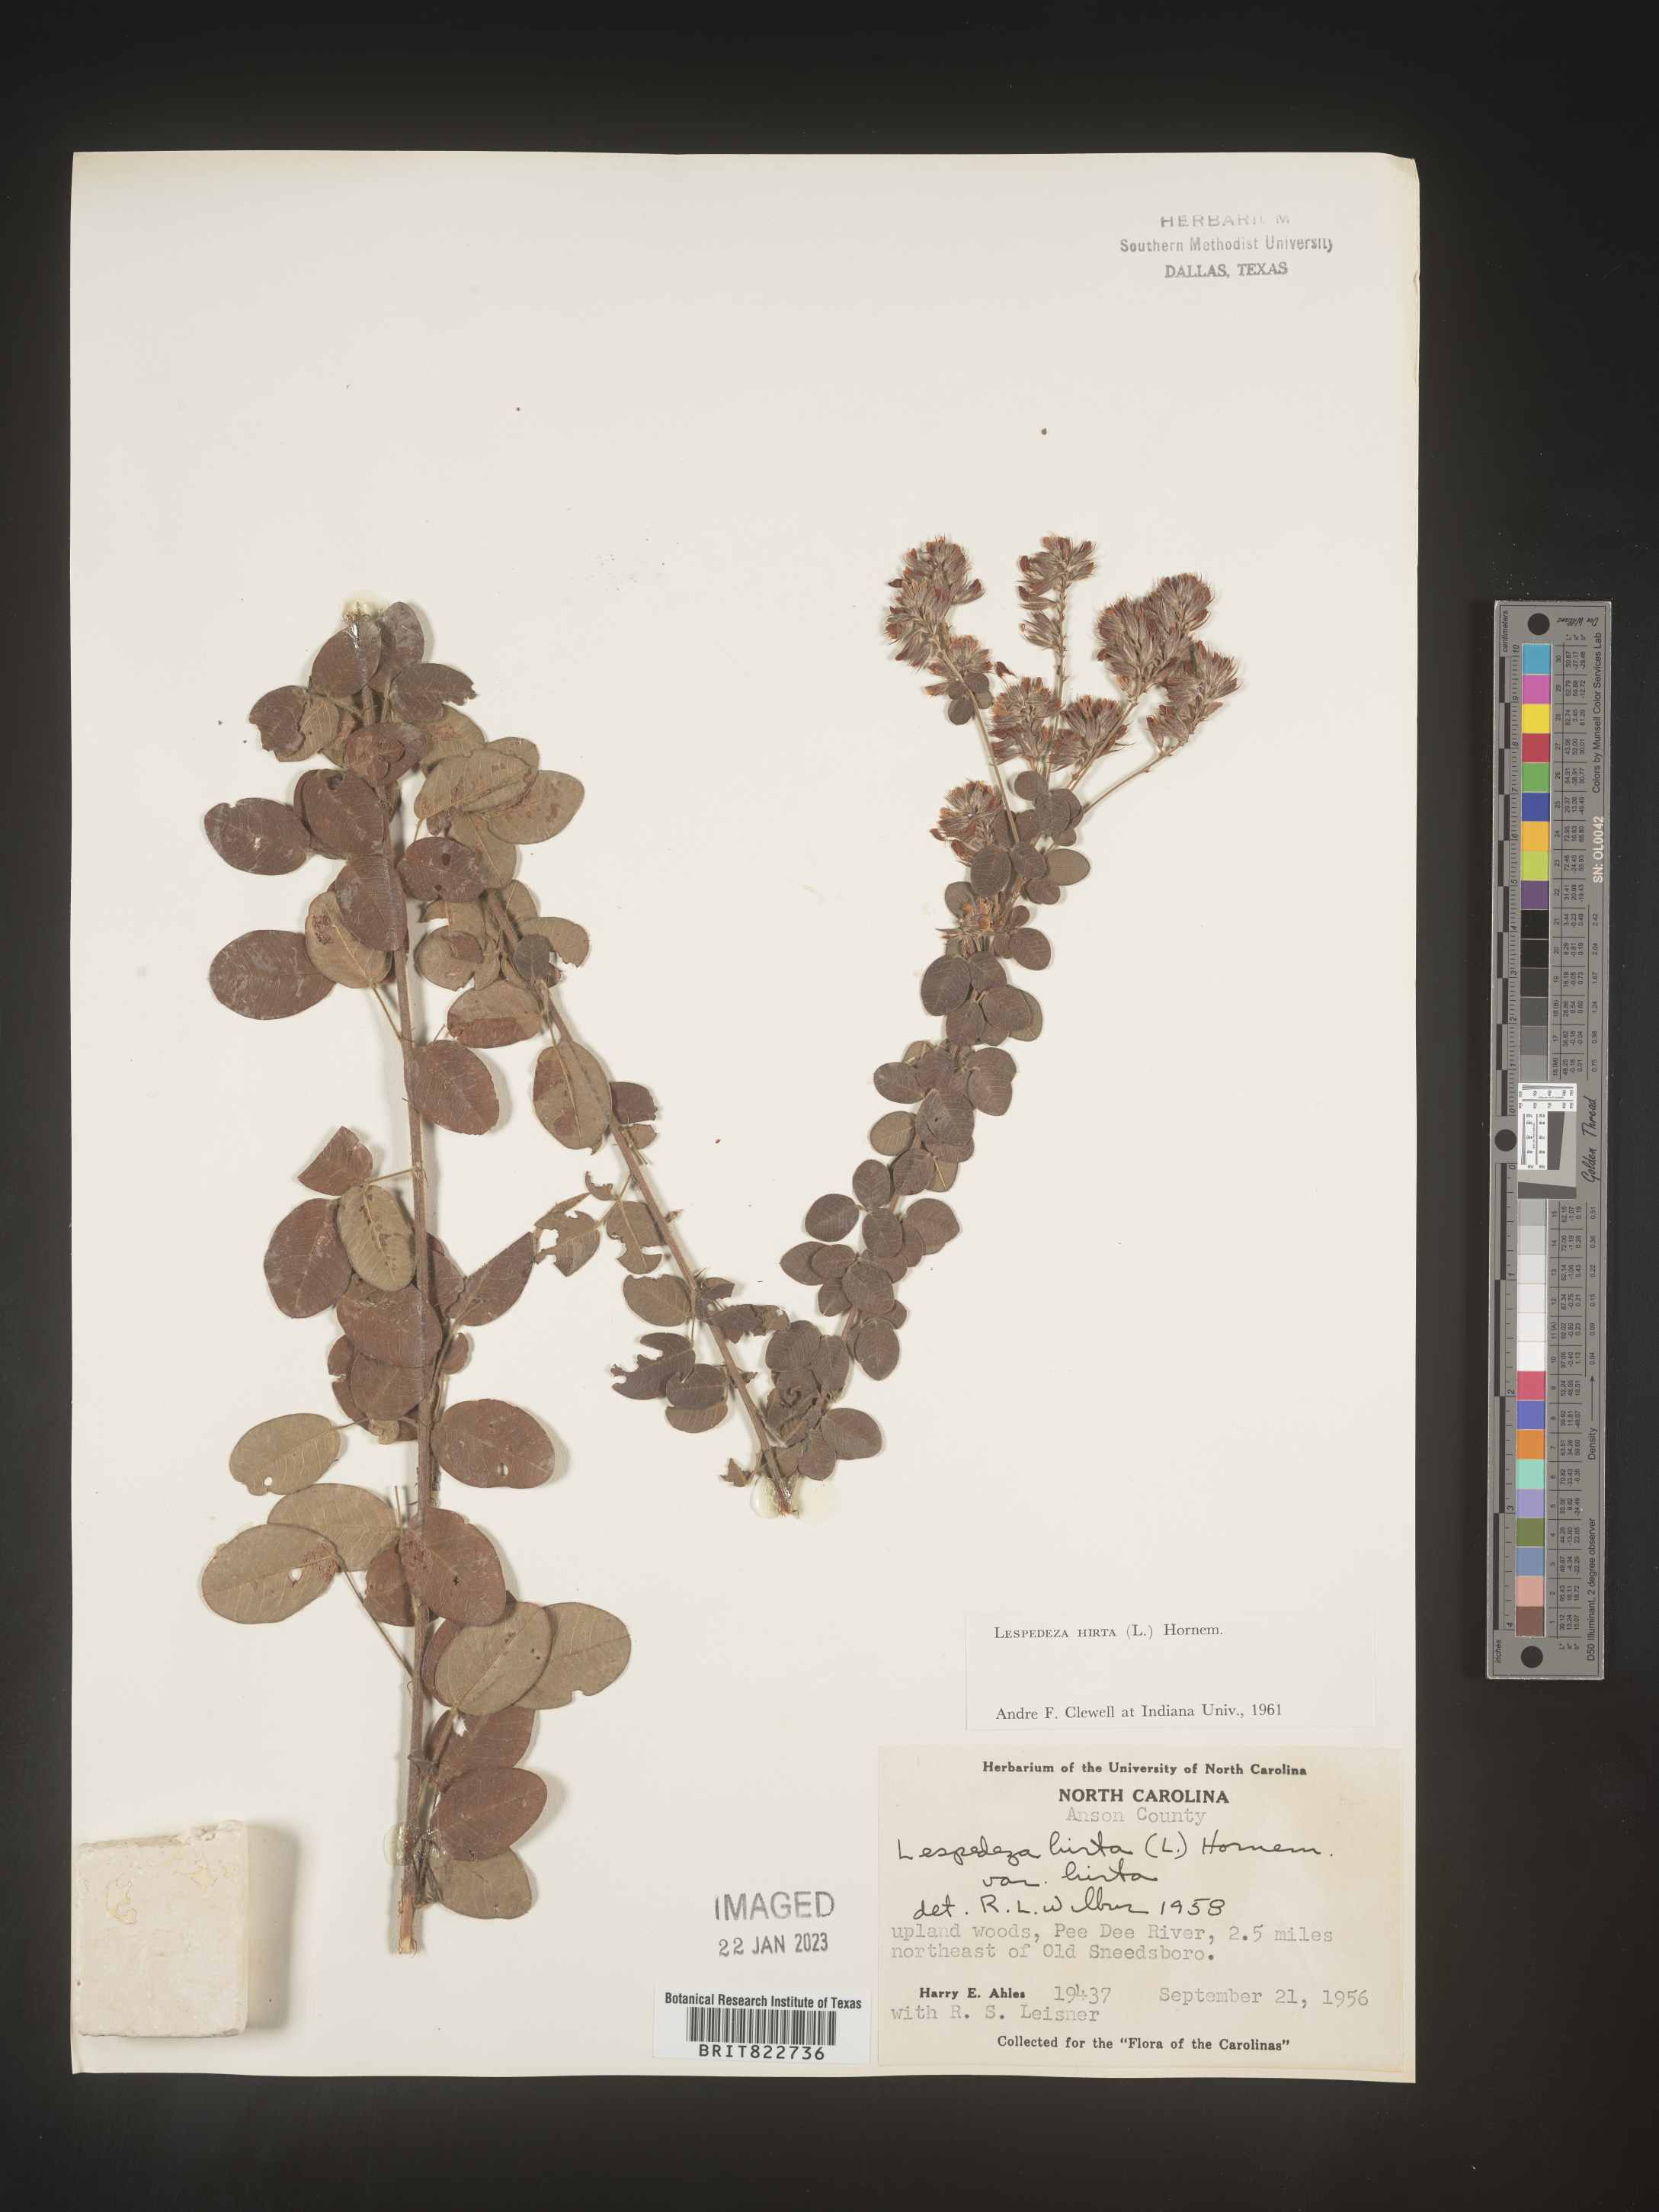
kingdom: Plantae
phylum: Tracheophyta
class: Magnoliopsida
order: Fabales
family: Fabaceae
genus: Lespedeza
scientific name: Lespedeza hirta
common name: Hairy lespedeza
